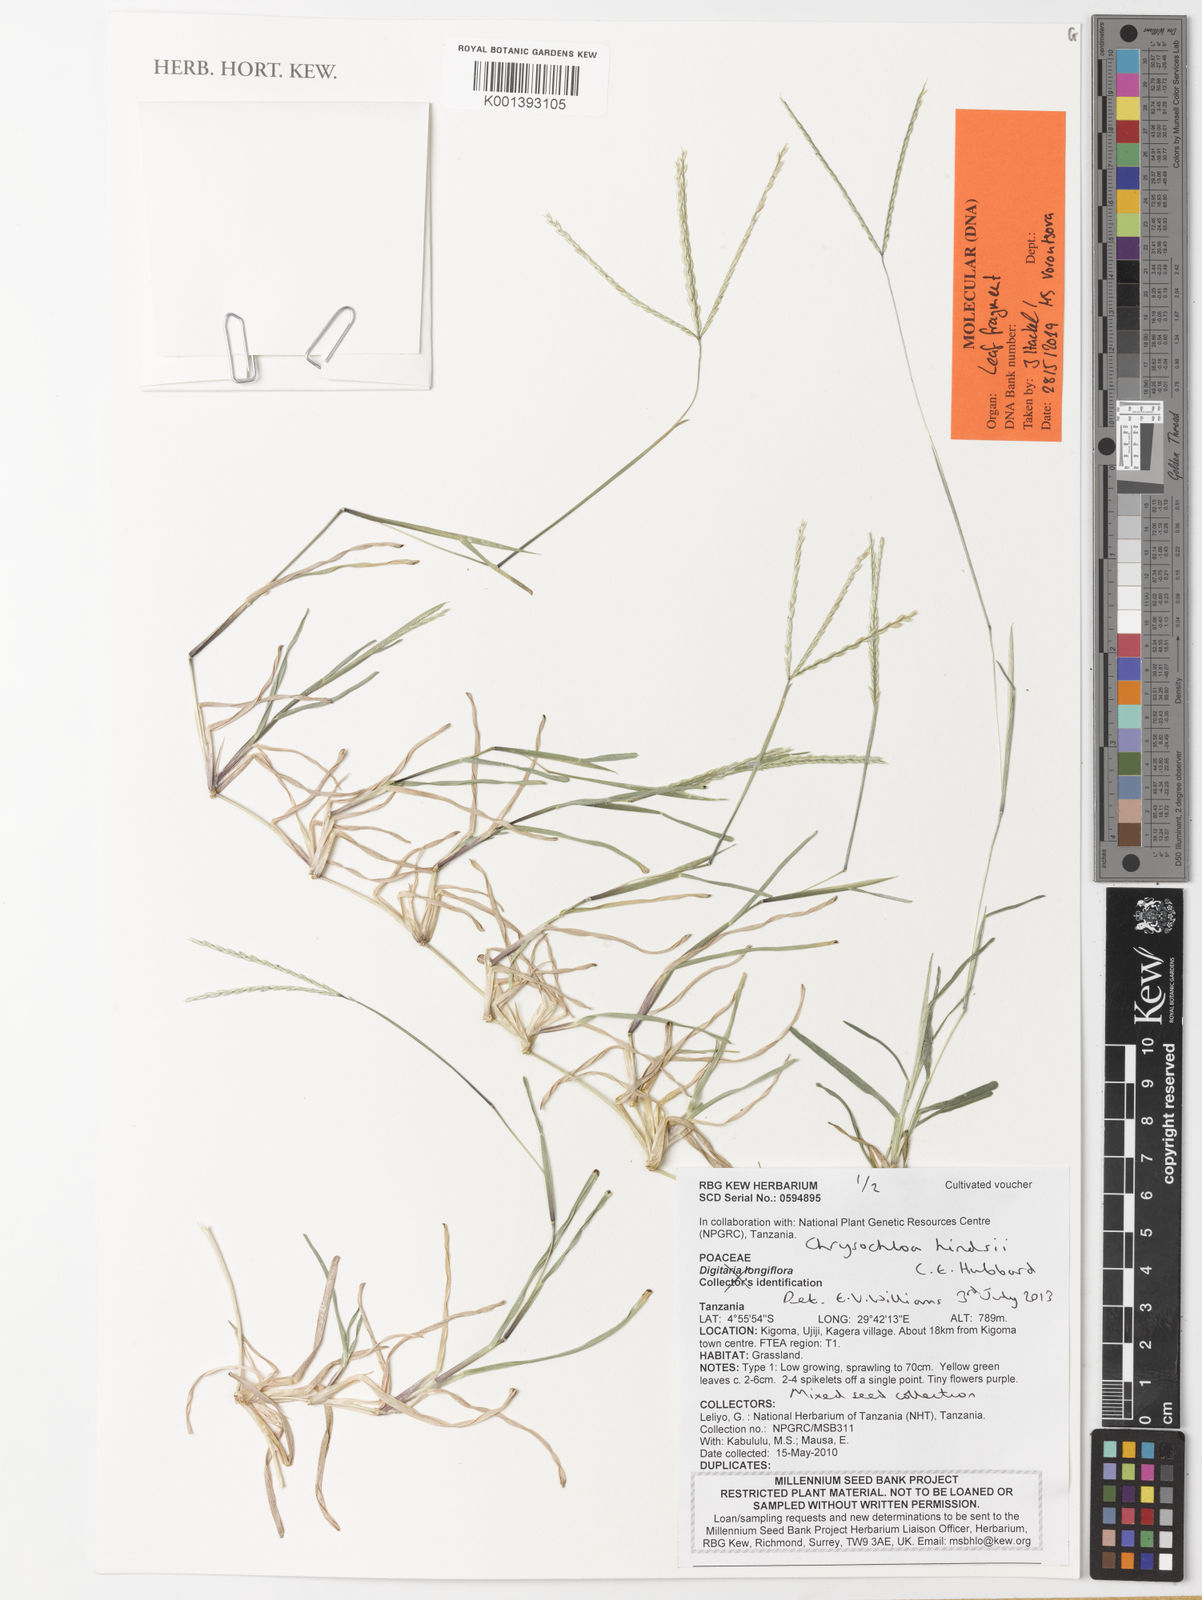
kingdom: Plantae
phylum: Tracheophyta
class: Liliopsida
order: Poales
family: Poaceae
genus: Chrysochloa
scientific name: Chrysochloa hindsii
